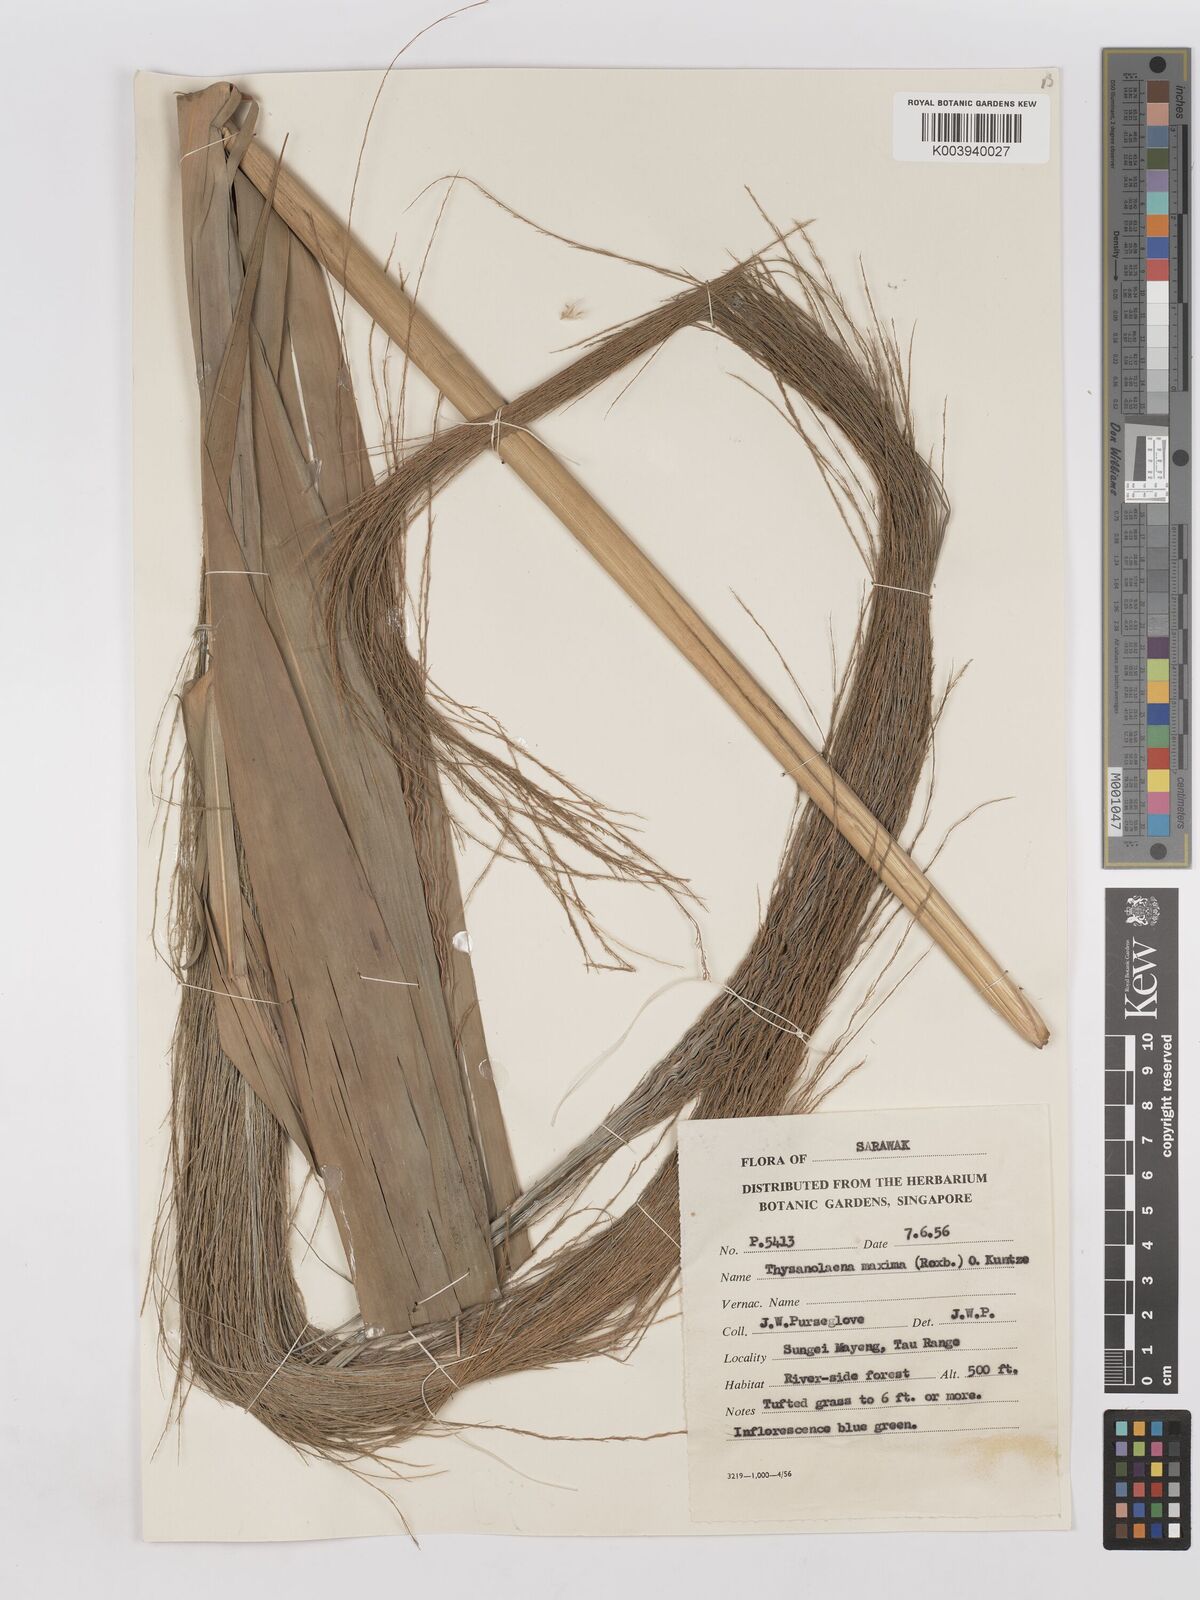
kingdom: Plantae
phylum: Tracheophyta
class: Liliopsida
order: Poales
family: Poaceae
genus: Thysanolaena
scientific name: Thysanolaena latifolia
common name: Tiger grass
